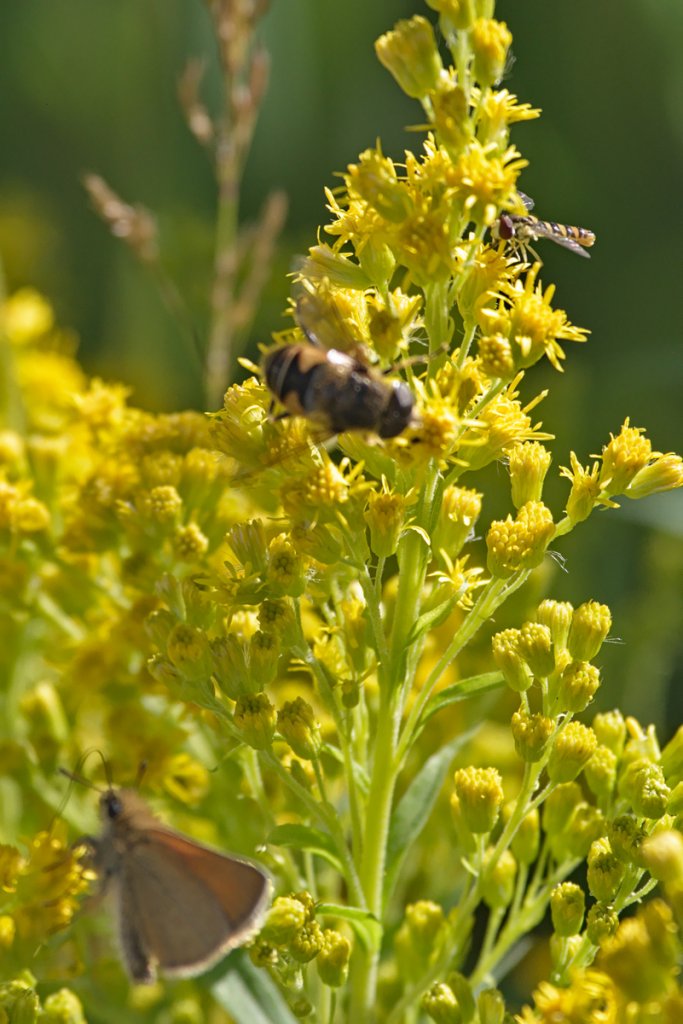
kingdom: Animalia
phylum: Arthropoda
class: Insecta
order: Lepidoptera
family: Hesperiidae
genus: Thymelicus
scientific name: Thymelicus lineola
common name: European Skipper
